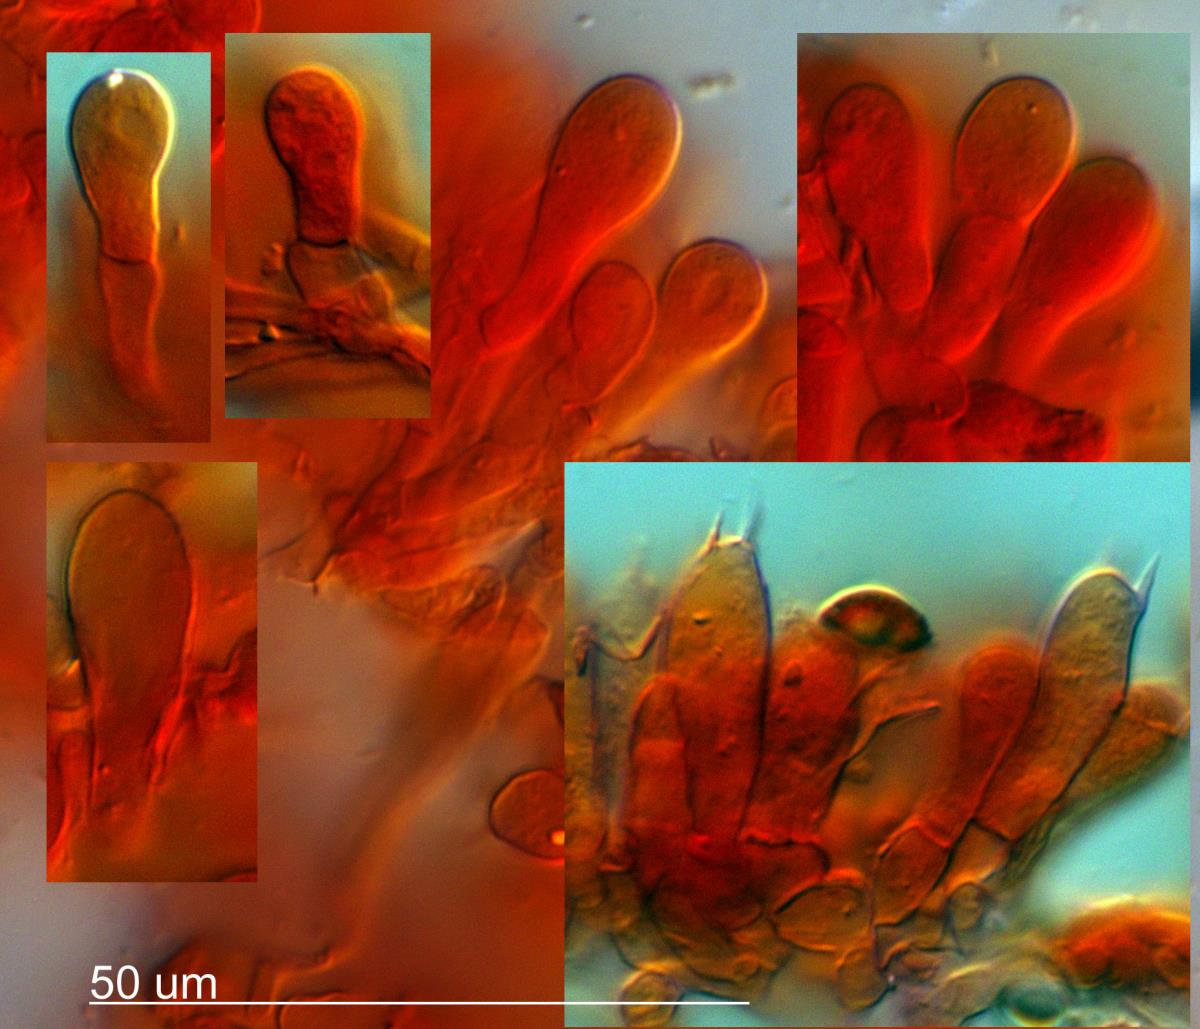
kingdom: Fungi
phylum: Basidiomycota
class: Agaricomycetes
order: Agaricales
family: Agaricaceae
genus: Agaricus
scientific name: Agaricus
